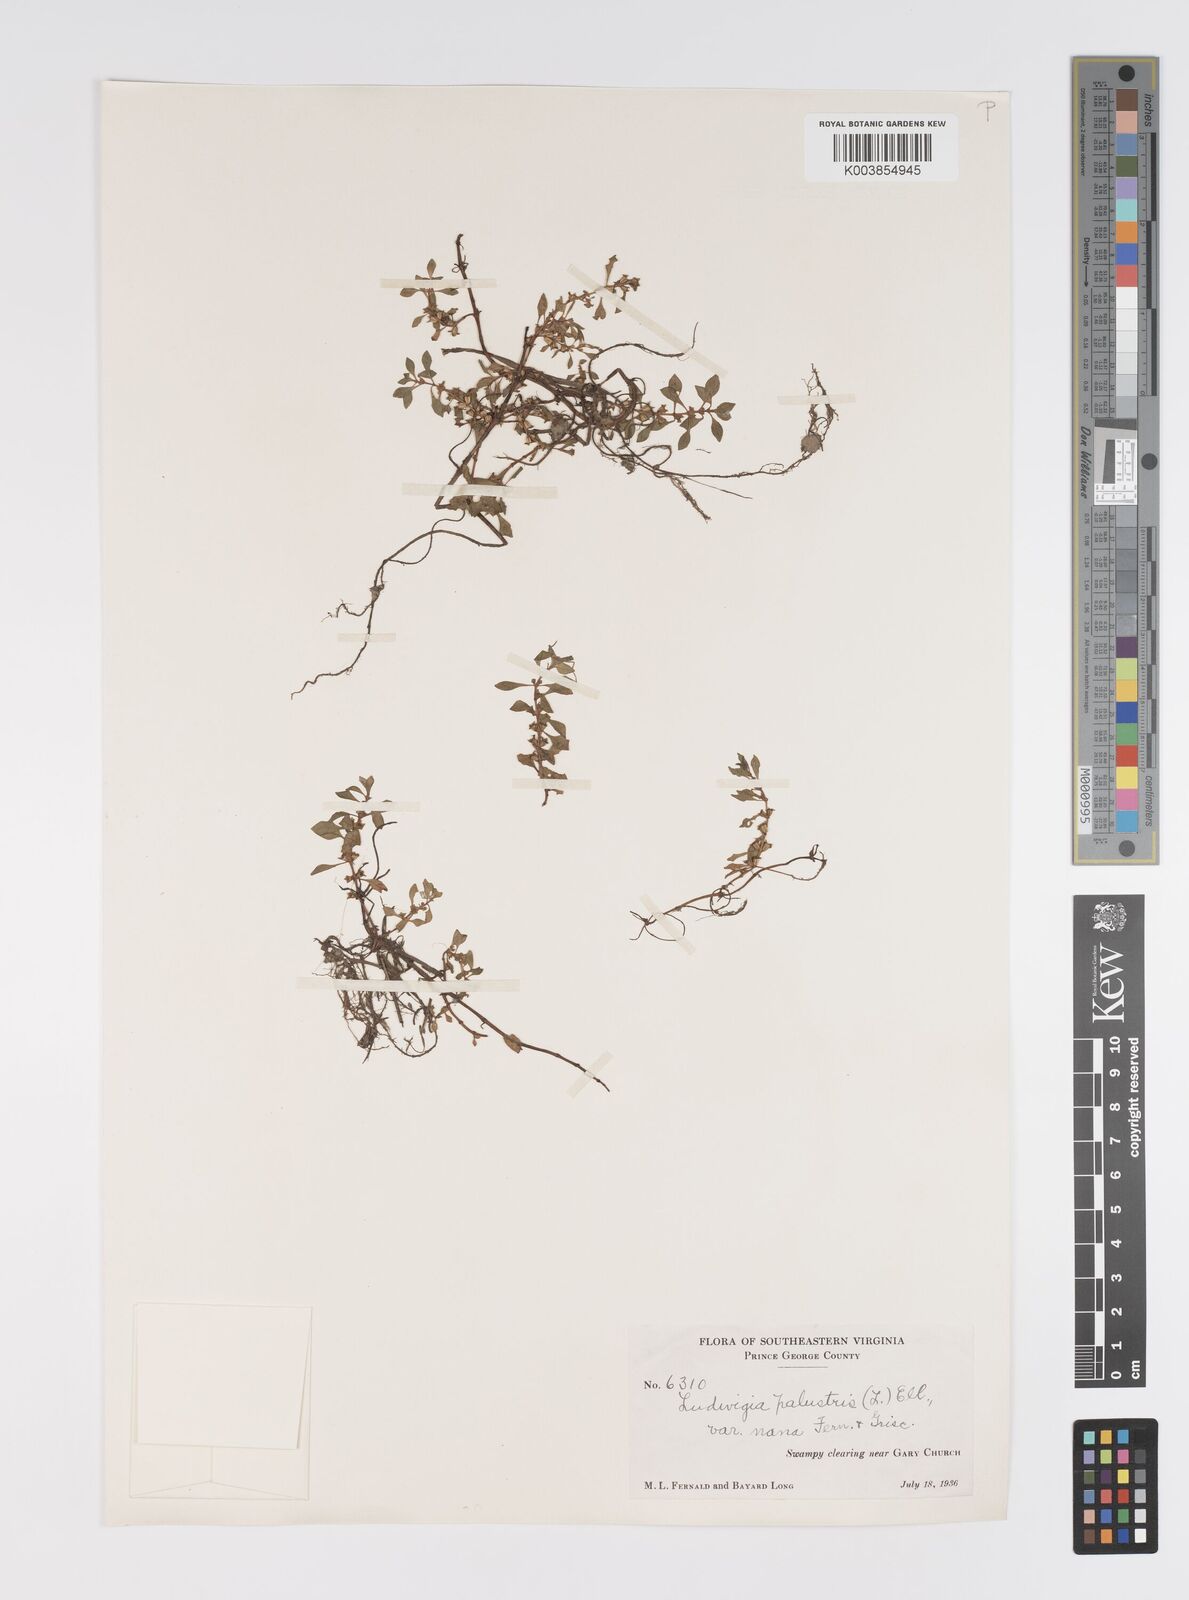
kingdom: Plantae
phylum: Tracheophyta
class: Magnoliopsida
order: Myrtales
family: Onagraceae
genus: Ludwigia
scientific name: Ludwigia palustris
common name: Hampshire-purslane
